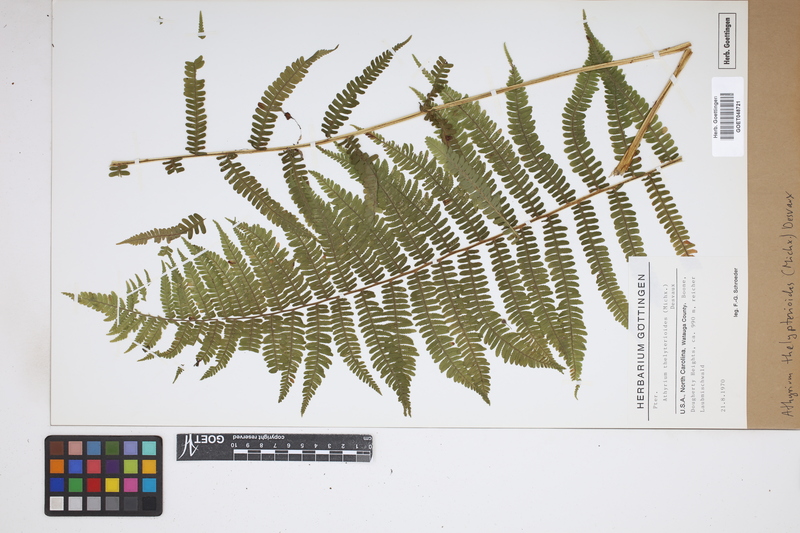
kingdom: Plantae
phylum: Tracheophyta
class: Polypodiopsida
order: Polypodiales
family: Thelypteridaceae
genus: Amauropelta
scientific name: Amauropelta noveboracensis
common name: New york fern
